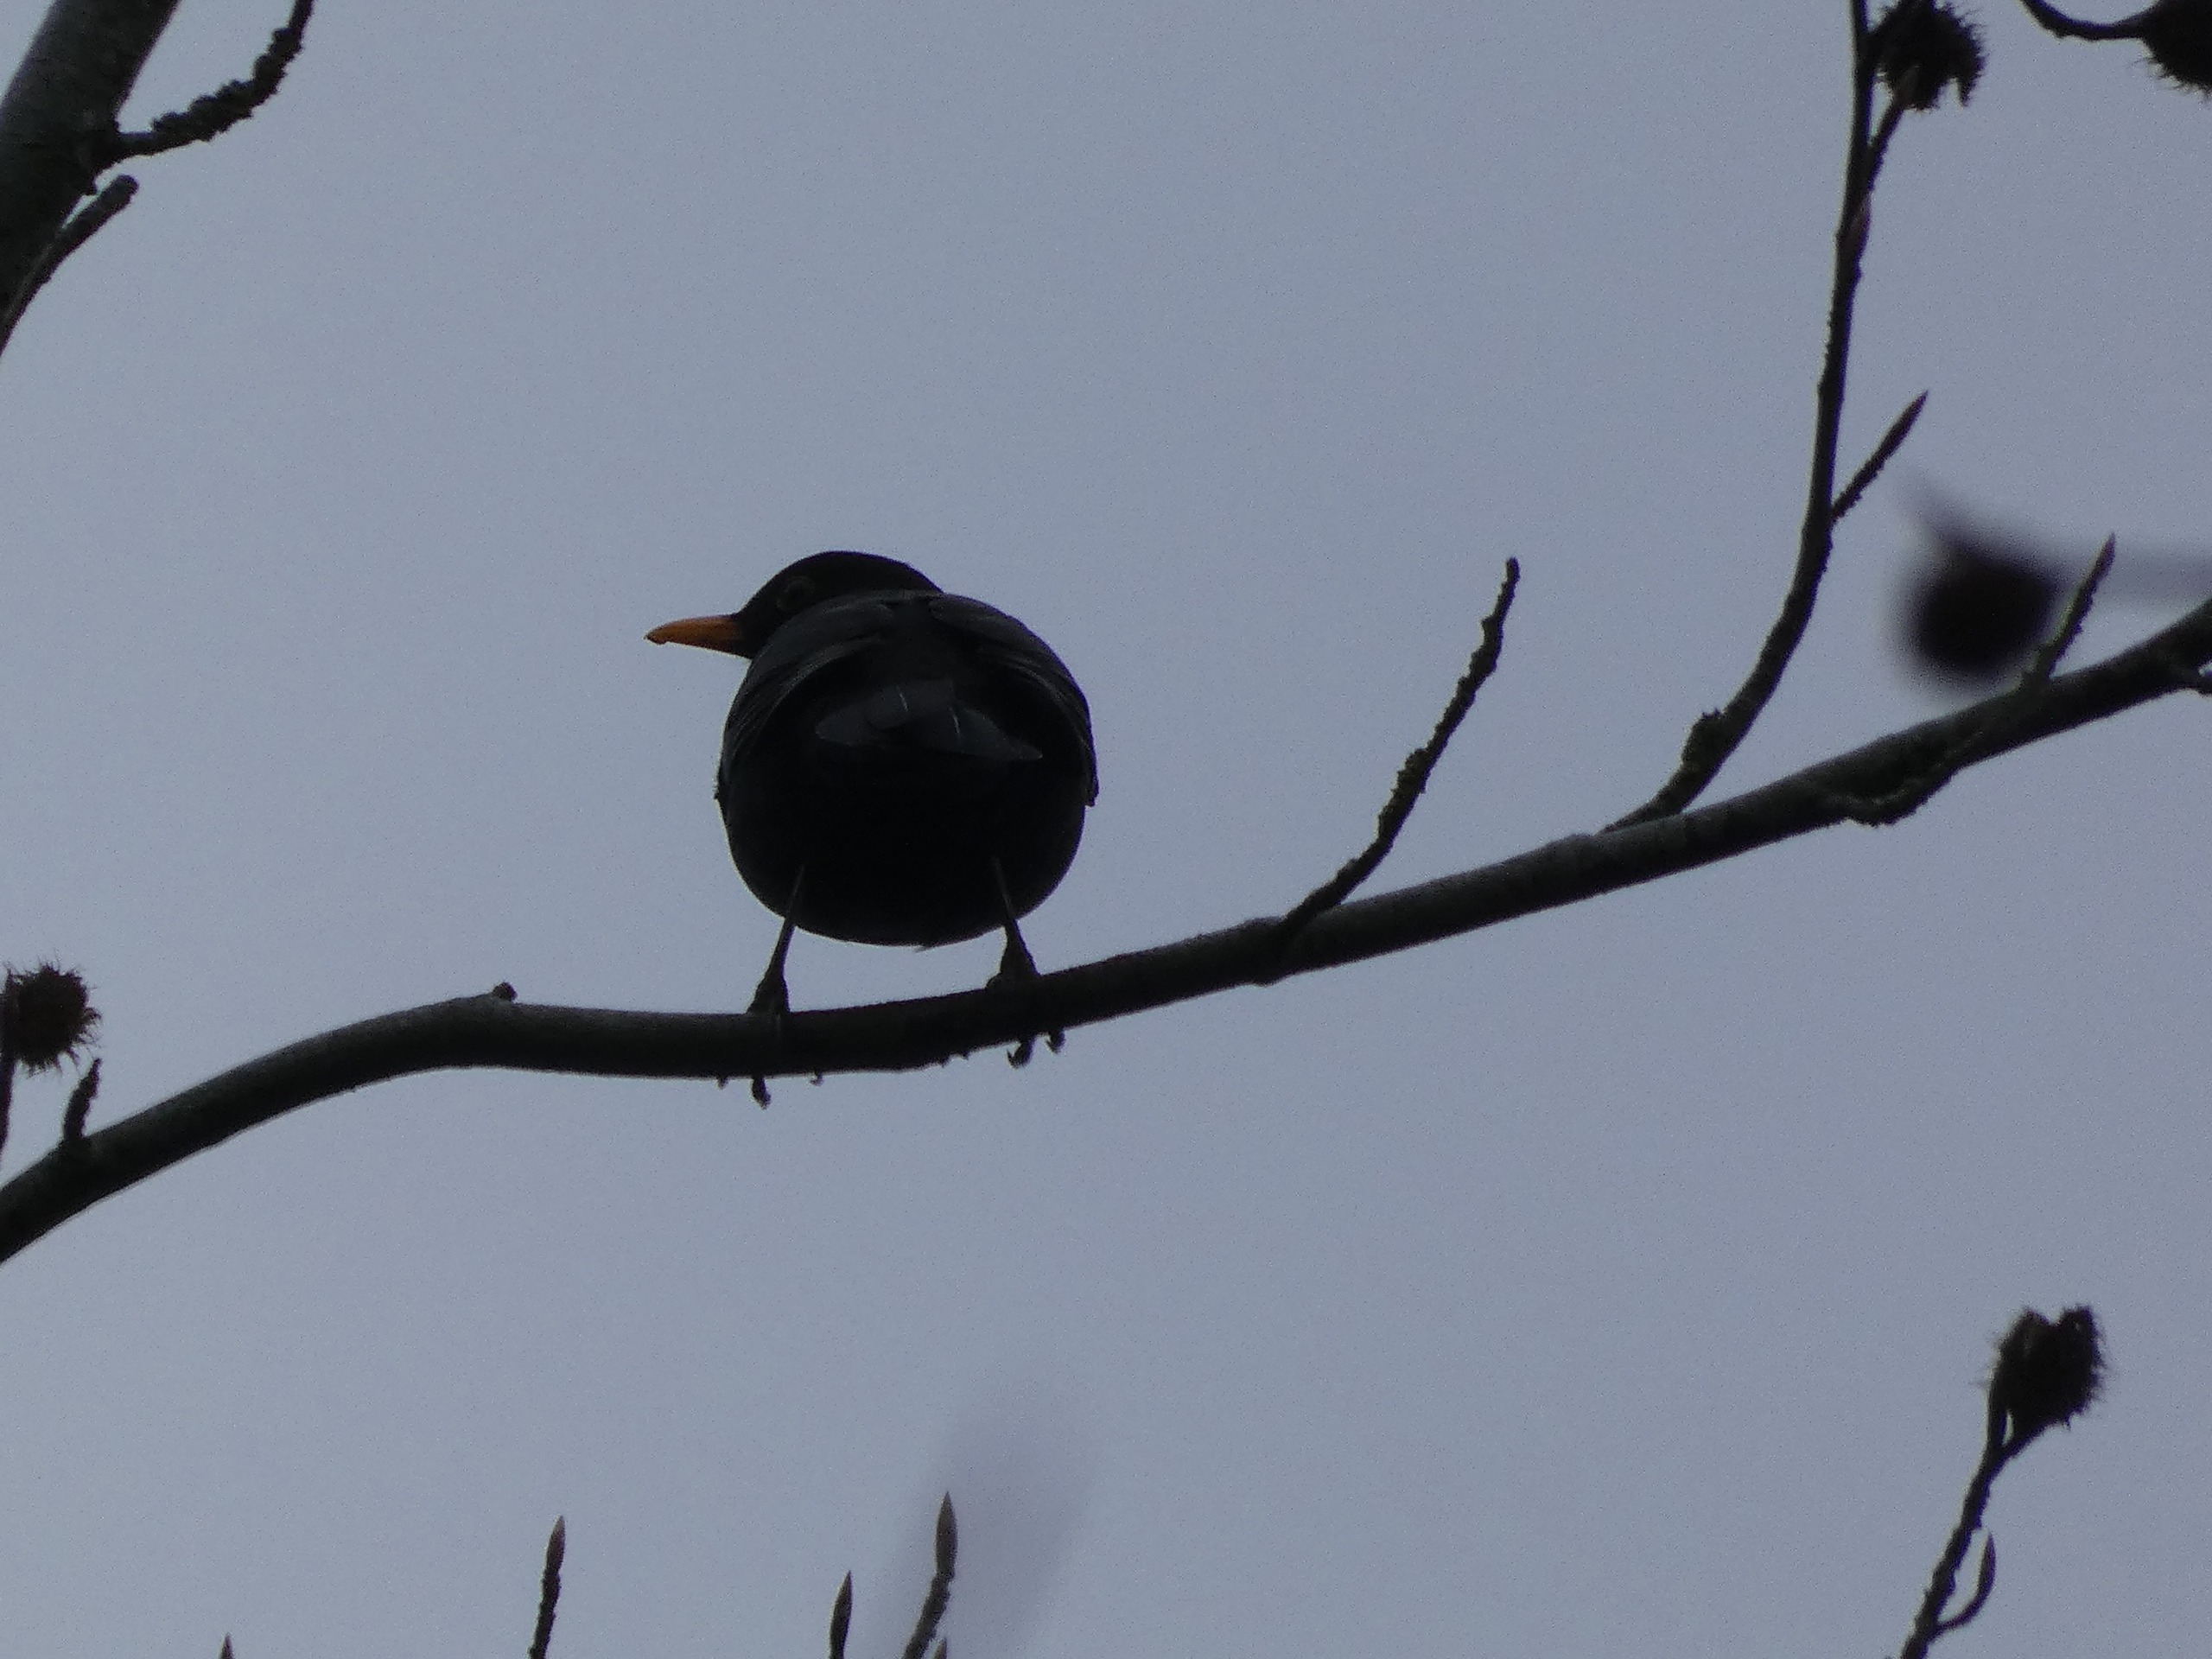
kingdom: Animalia
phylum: Chordata
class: Aves
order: Passeriformes
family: Turdidae
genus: Turdus
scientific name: Turdus merula
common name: Solsort
